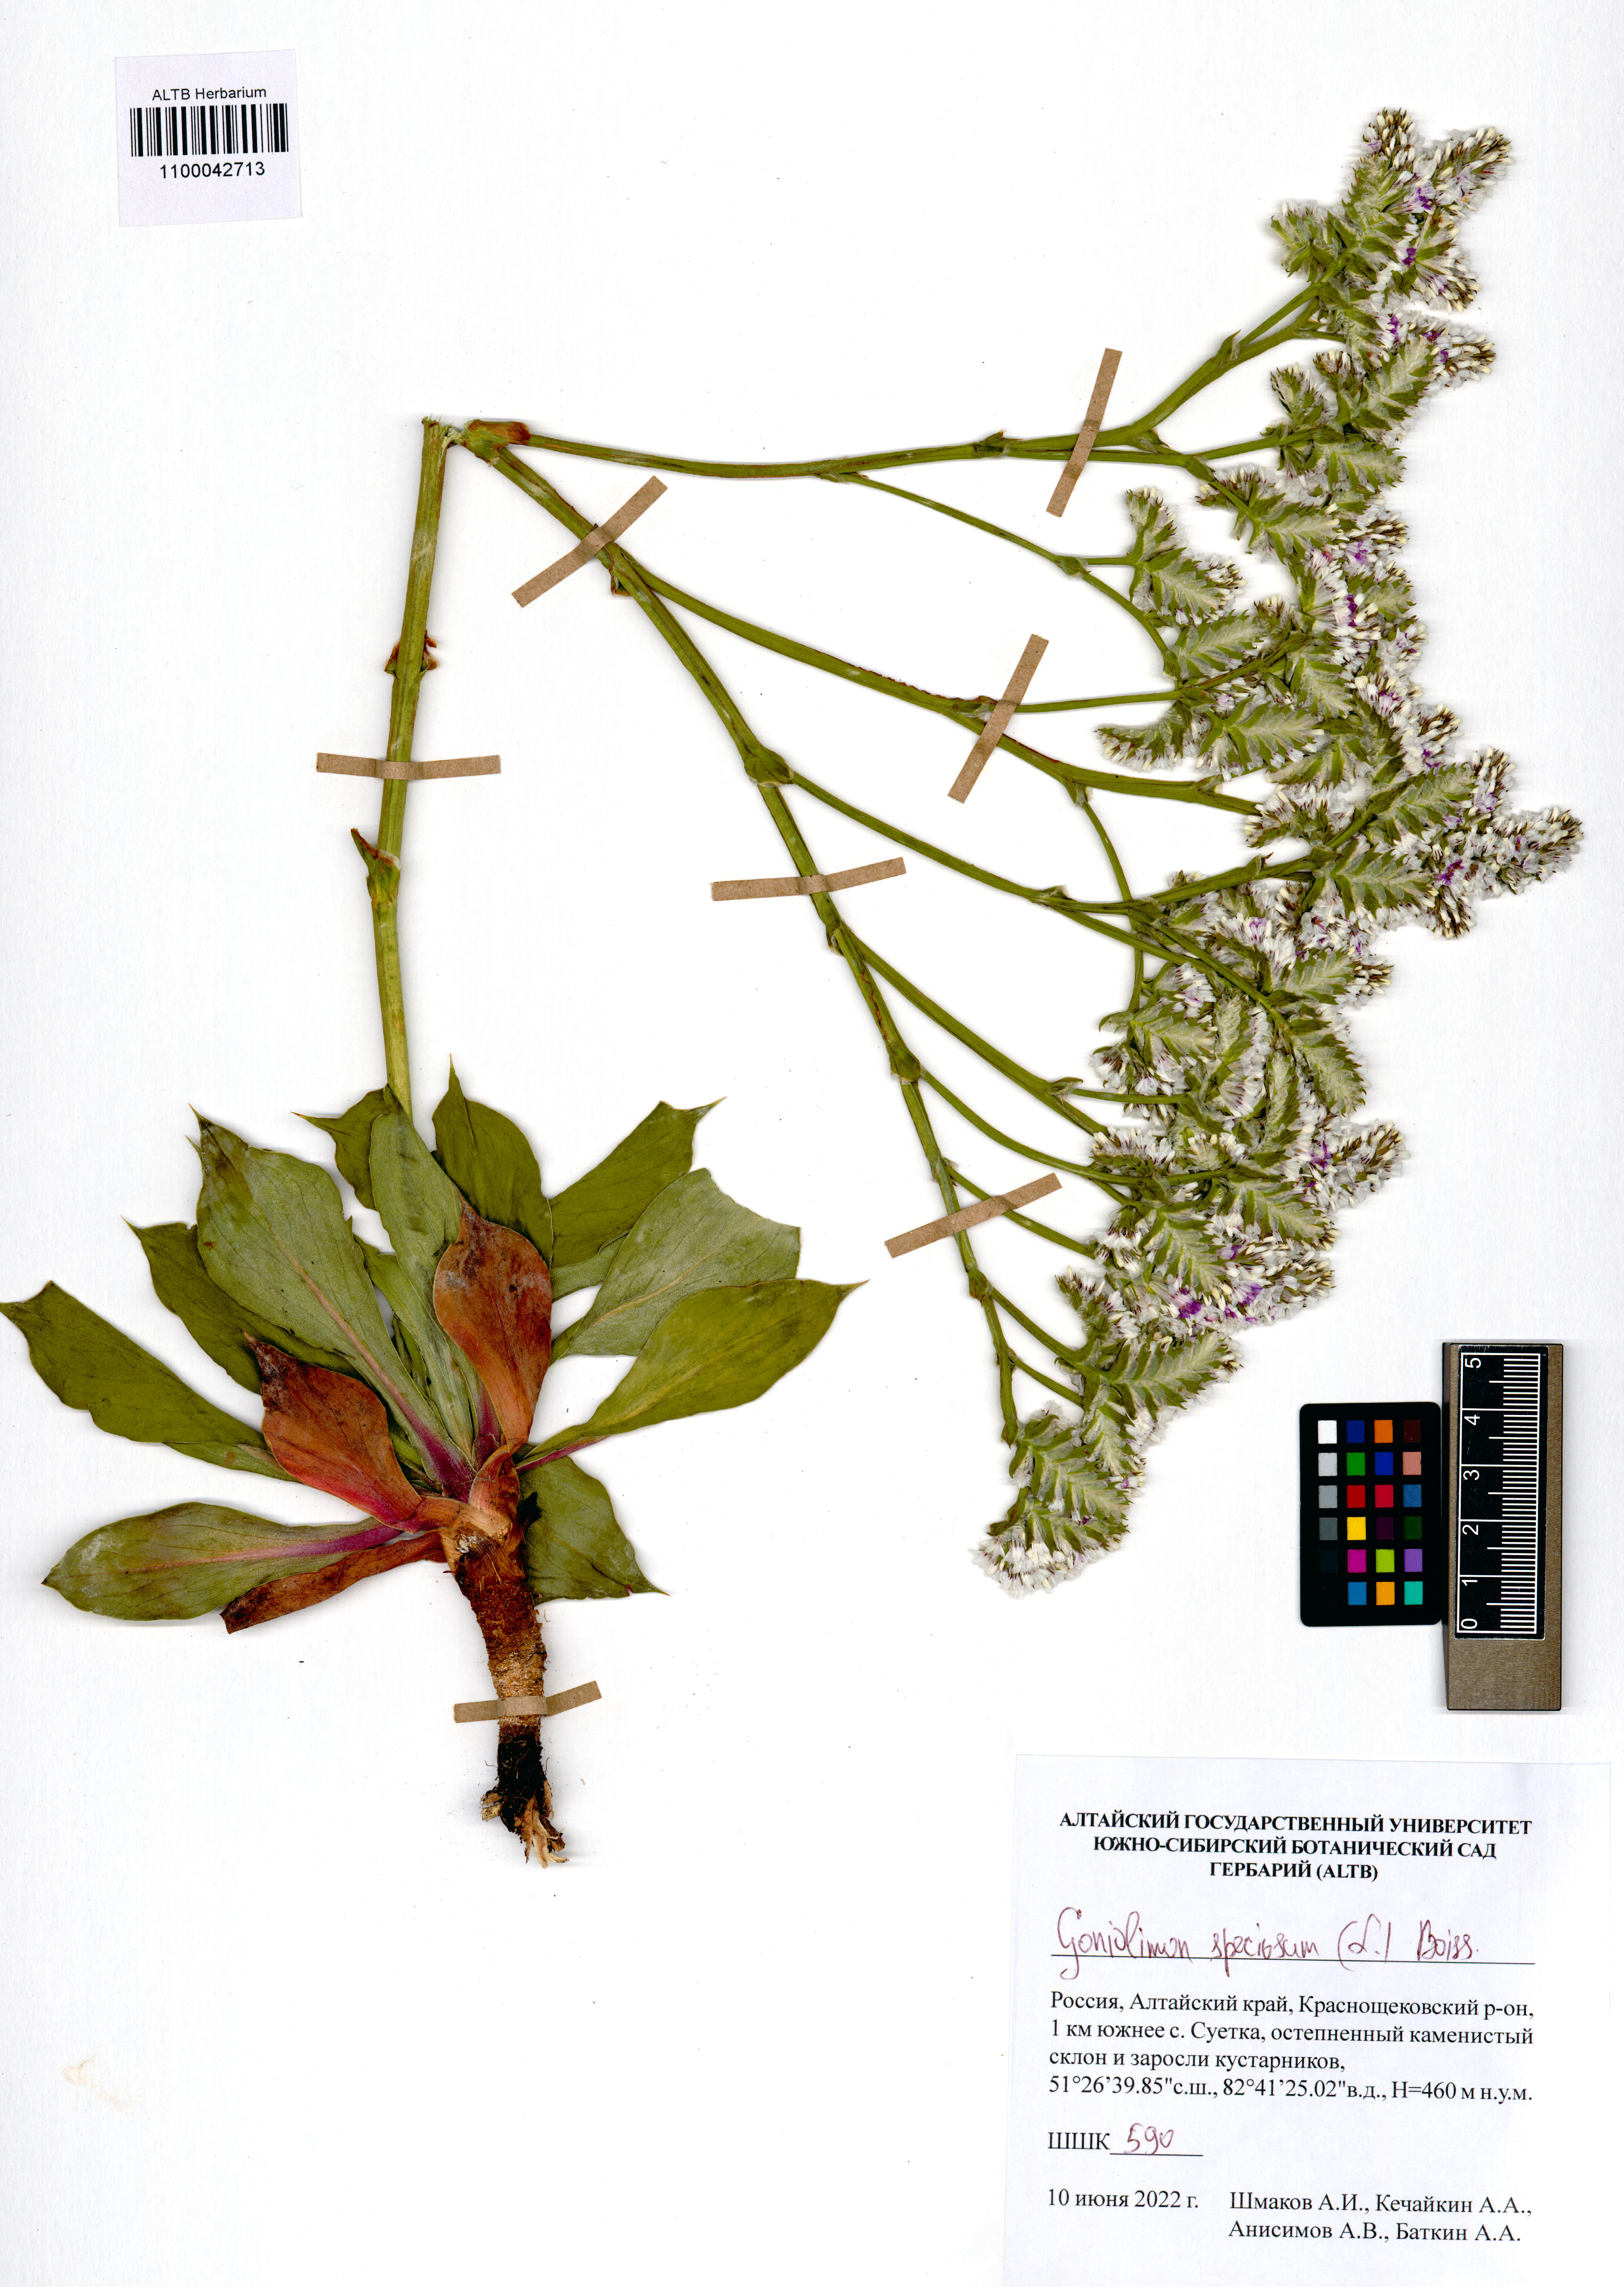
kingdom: Plantae
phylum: Tracheophyta
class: Magnoliopsida
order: Caryophyllales
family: Plumbaginaceae
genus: Goniolimon
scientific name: Goniolimon speciosum
